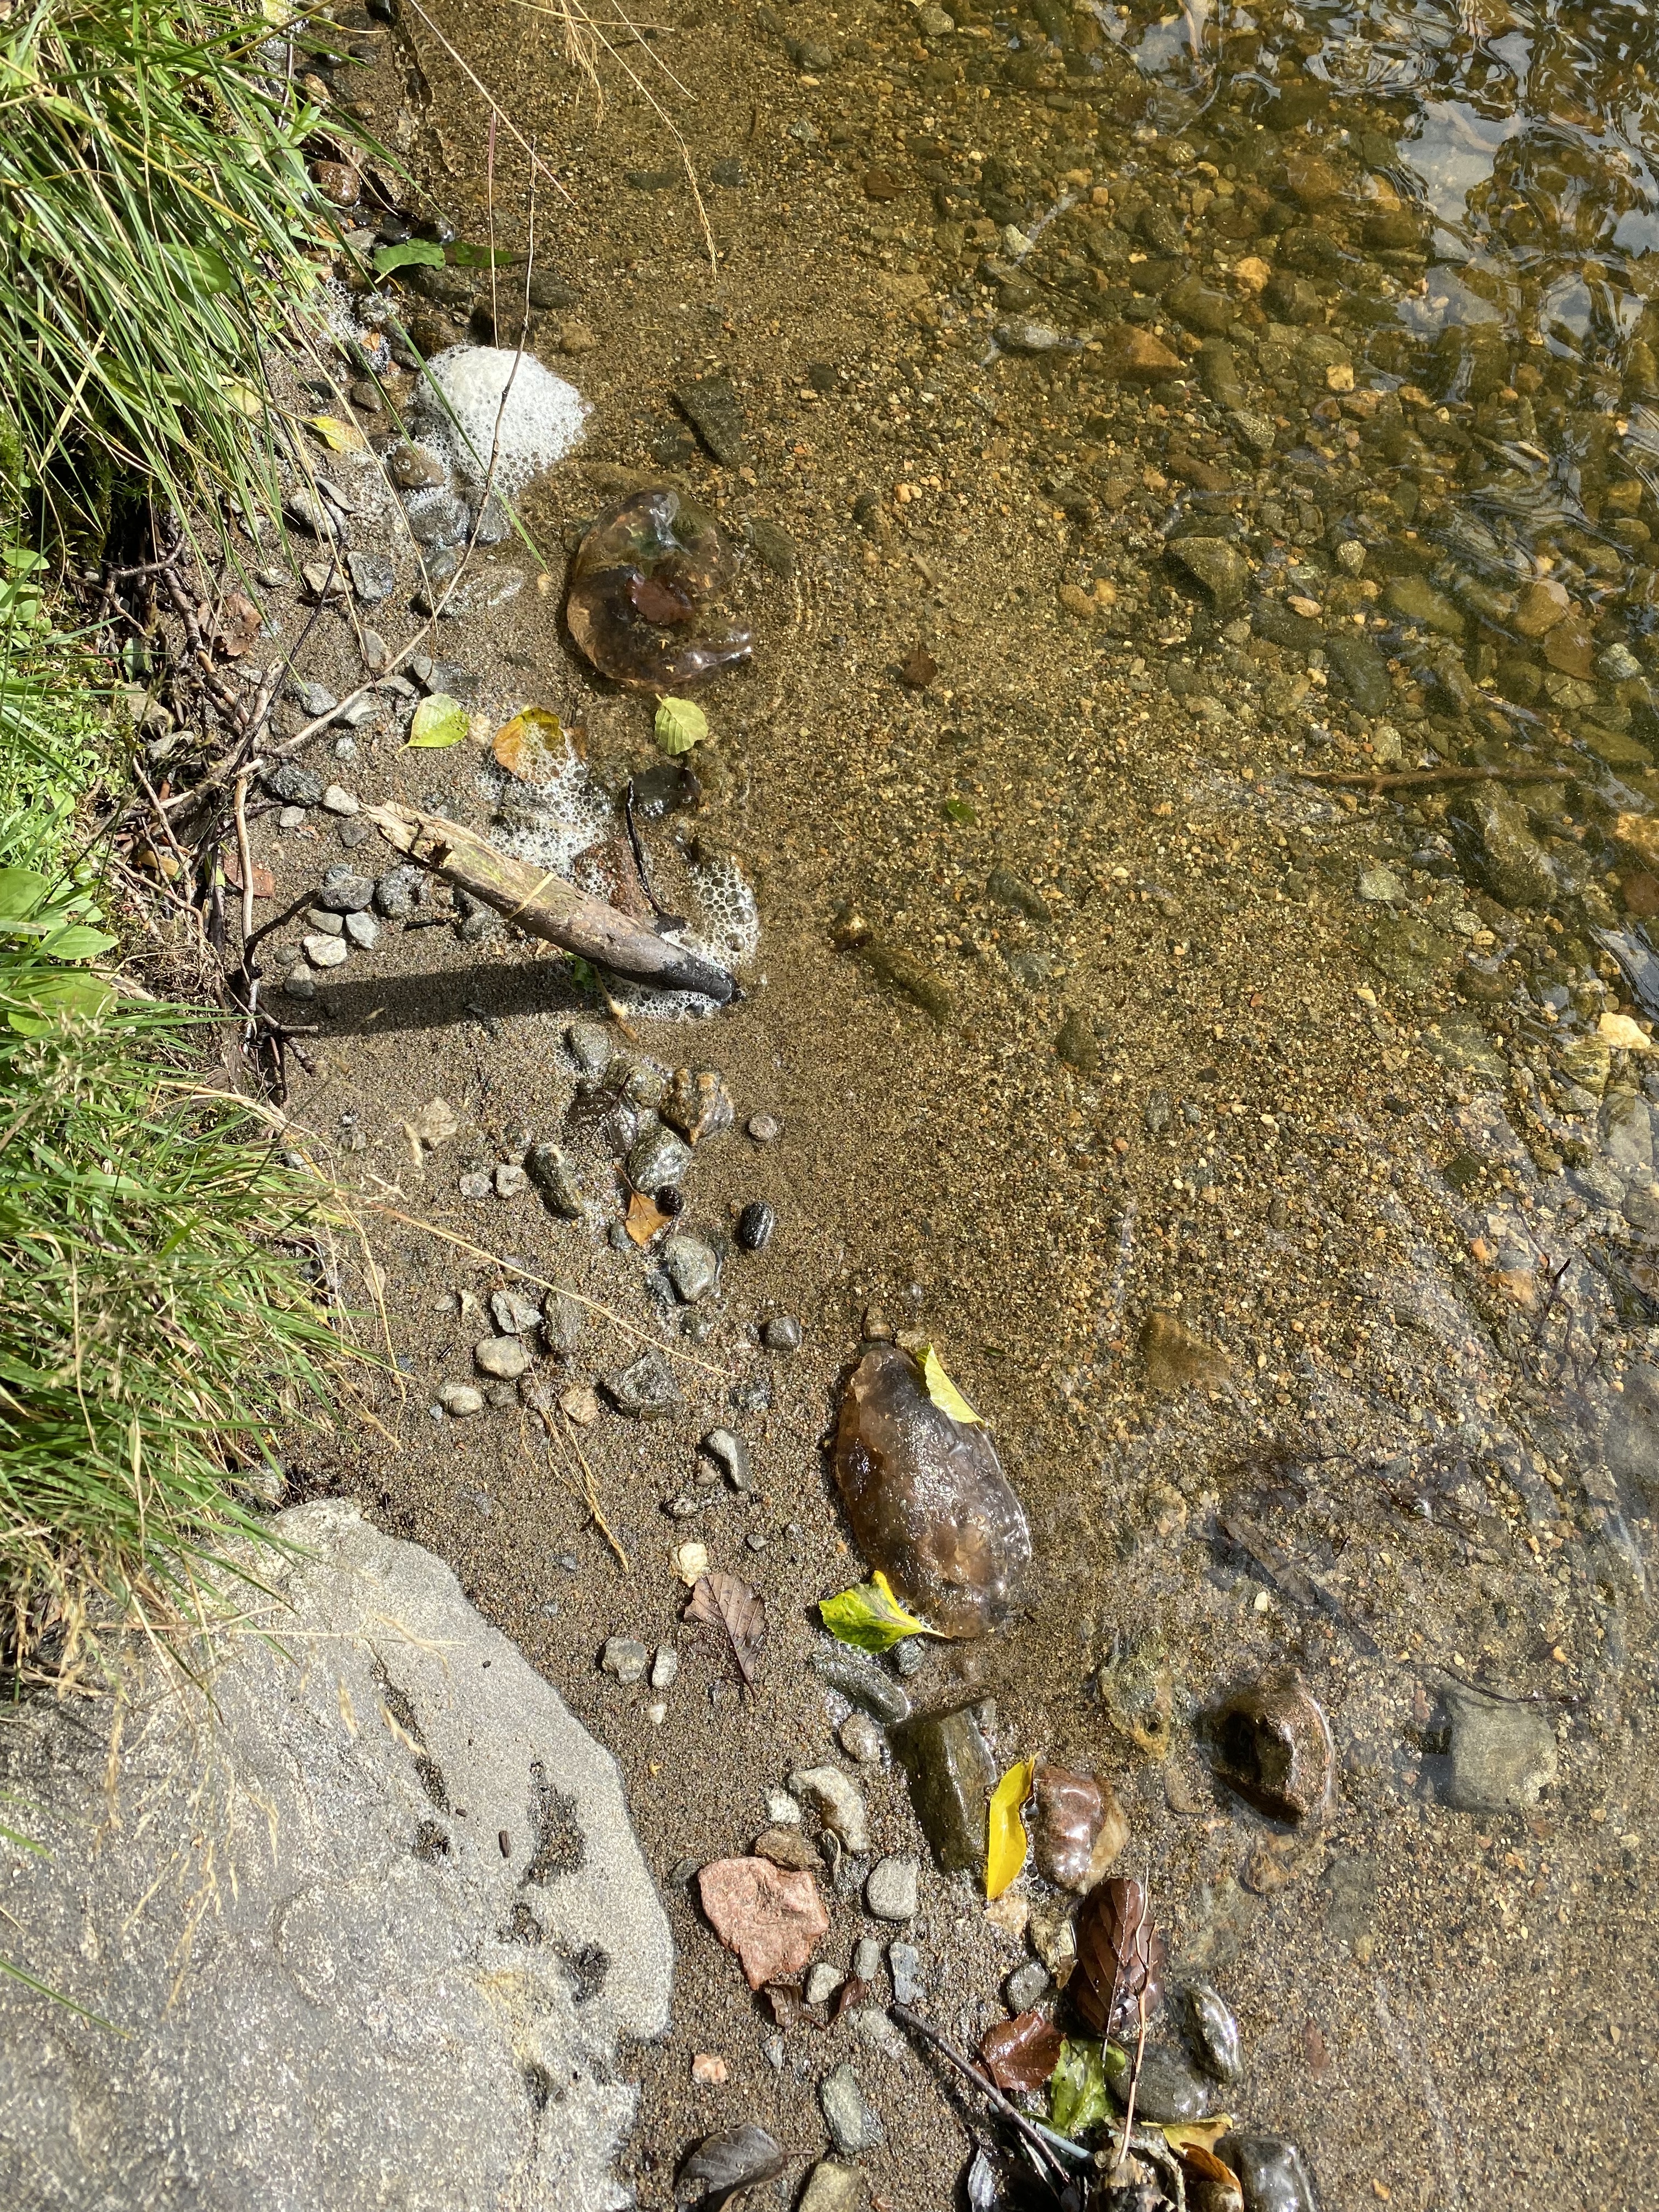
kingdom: Animalia
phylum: Bryozoa
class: Phylactolaemata
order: Plumatellida
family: Pectinatellidae
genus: Pectinatella
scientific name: Pectinatella magnifica
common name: Magnificent bryozoan
